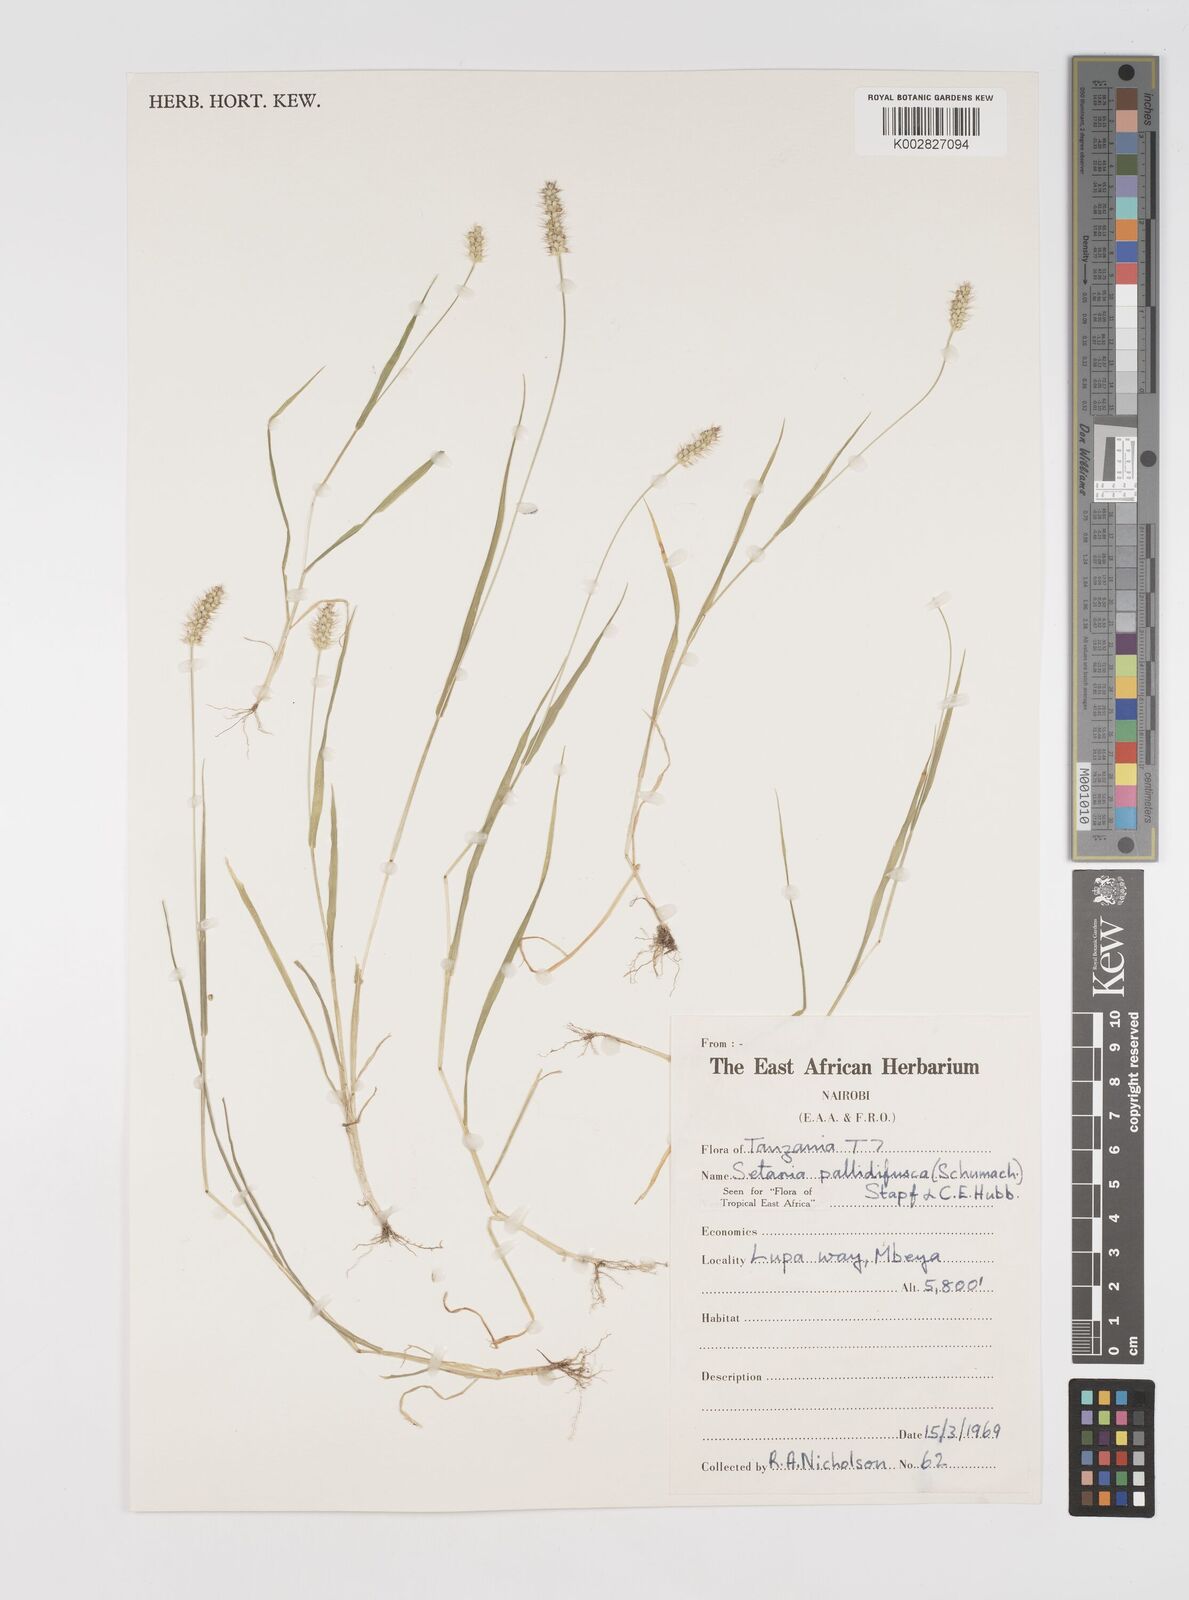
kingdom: Plantae
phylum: Tracheophyta
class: Liliopsida
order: Poales
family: Poaceae
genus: Setaria
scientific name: Setaria pumila
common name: Yellow bristle-grass
